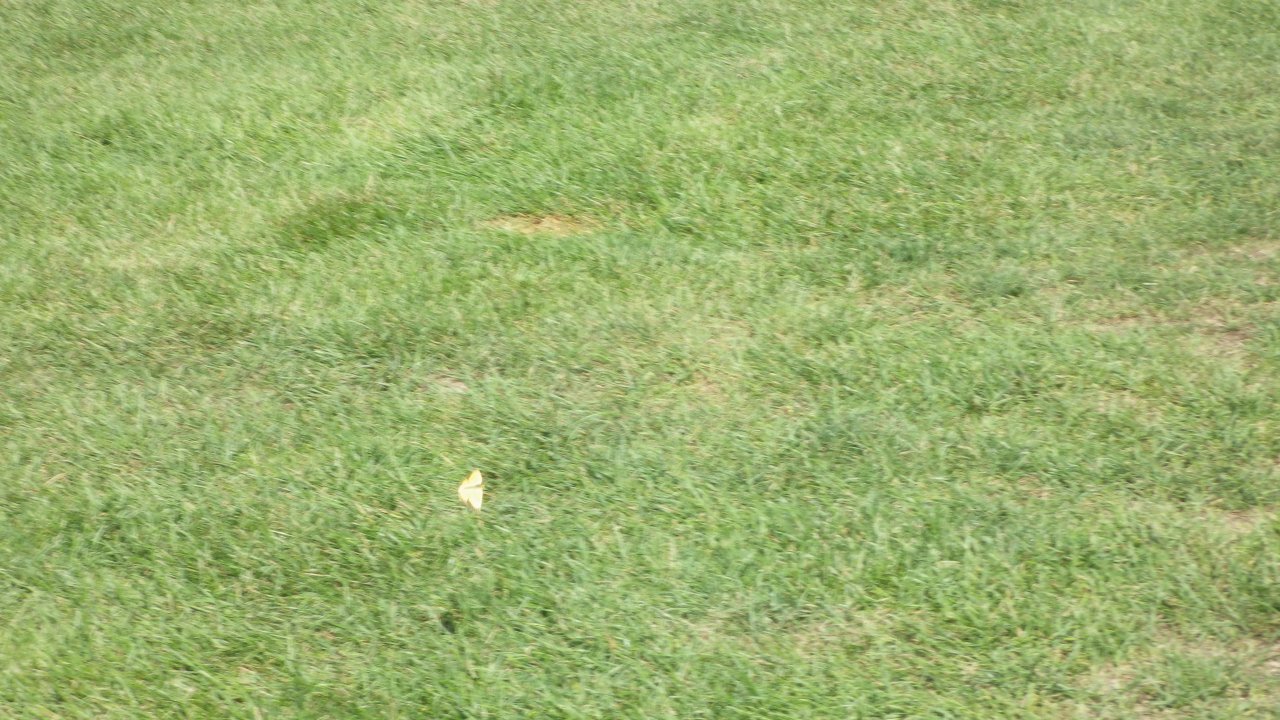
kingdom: Animalia
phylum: Arthropoda
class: Insecta
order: Lepidoptera
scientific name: Lepidoptera
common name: Butterflies
